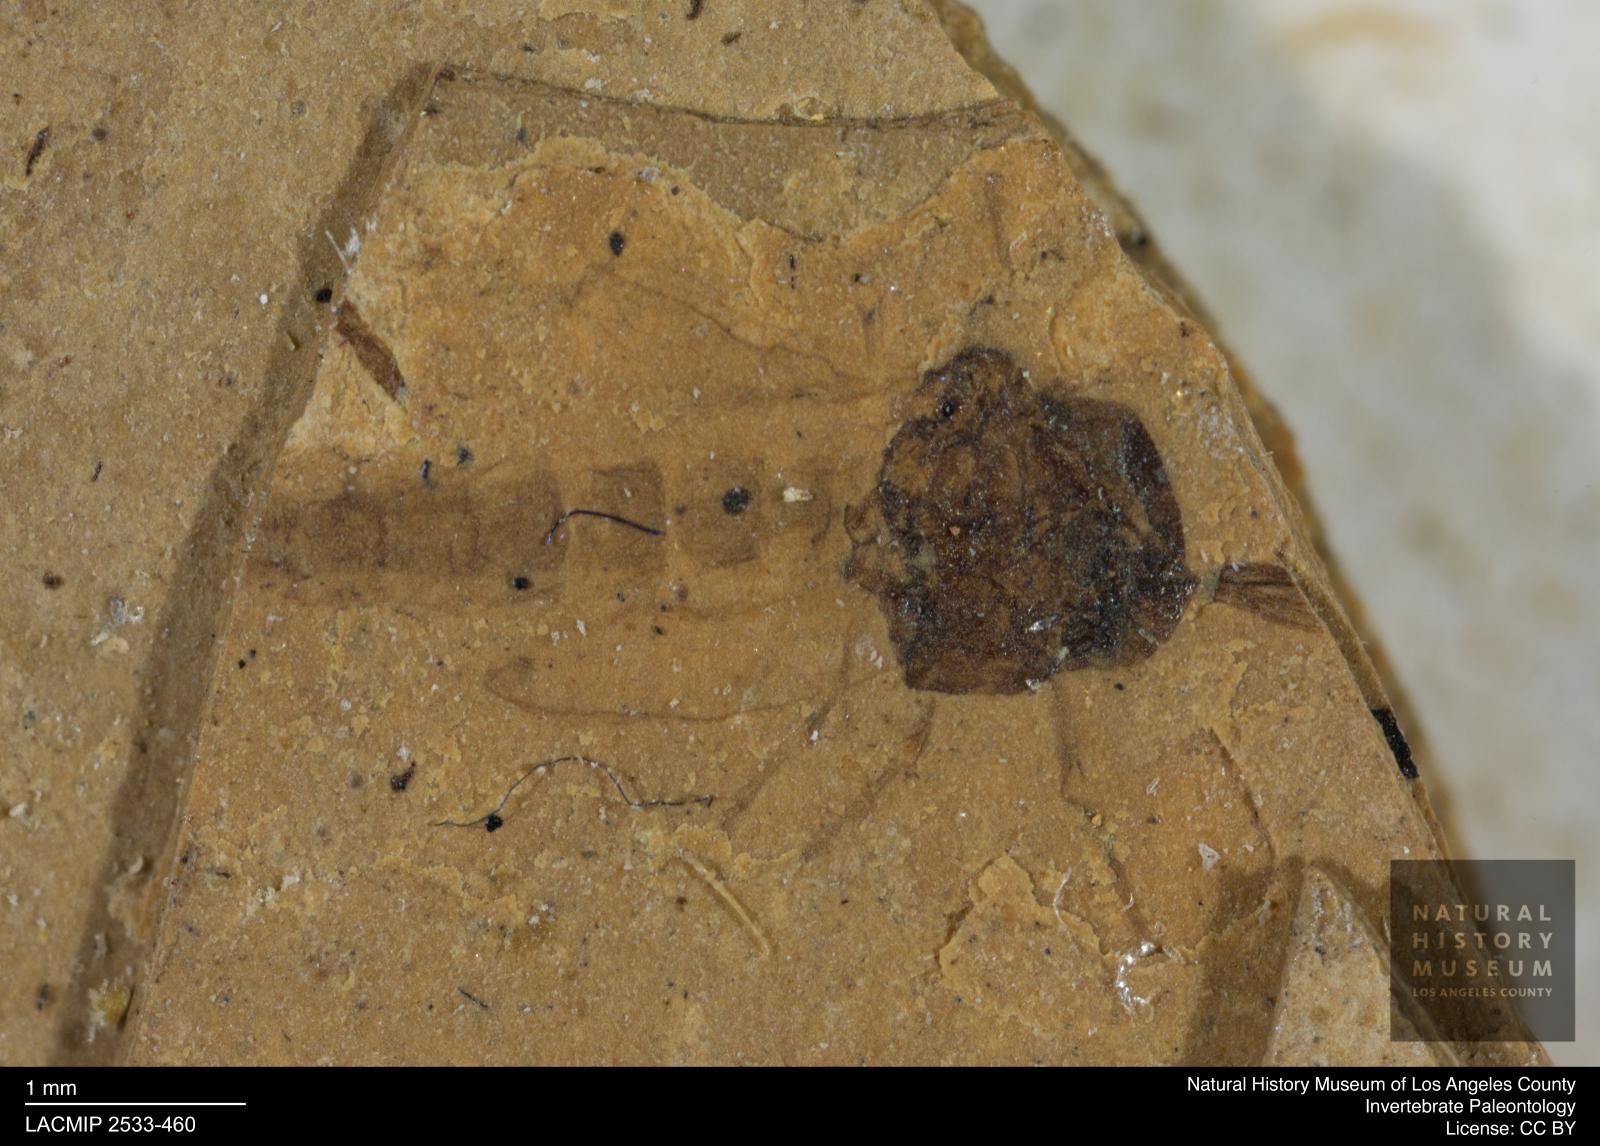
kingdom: Animalia
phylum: Arthropoda
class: Insecta
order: Diptera
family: Chironomidae
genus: Tanypus
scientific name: Tanypus thienemanni
